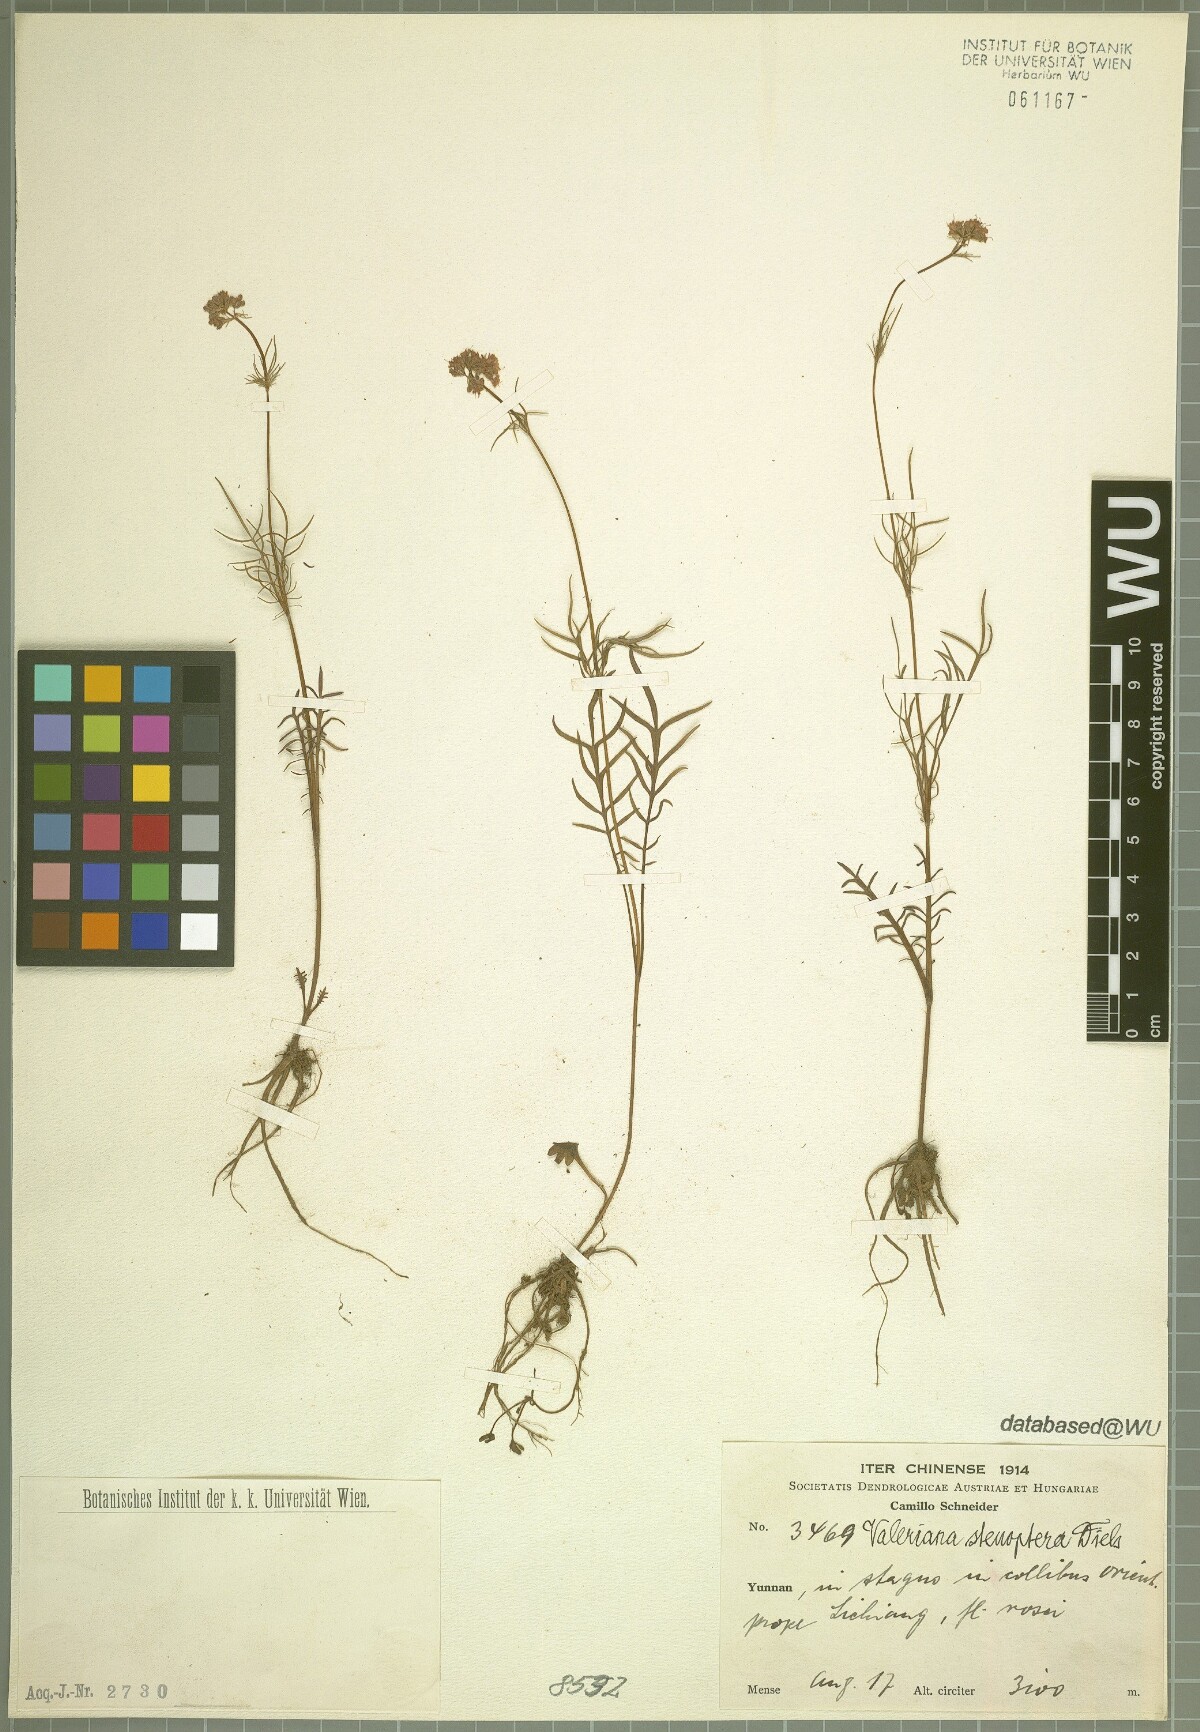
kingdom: Plantae
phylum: Tracheophyta
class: Magnoliopsida
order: Dipsacales
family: Caprifoliaceae
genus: Valeriana
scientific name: Valeriana stenoptera
